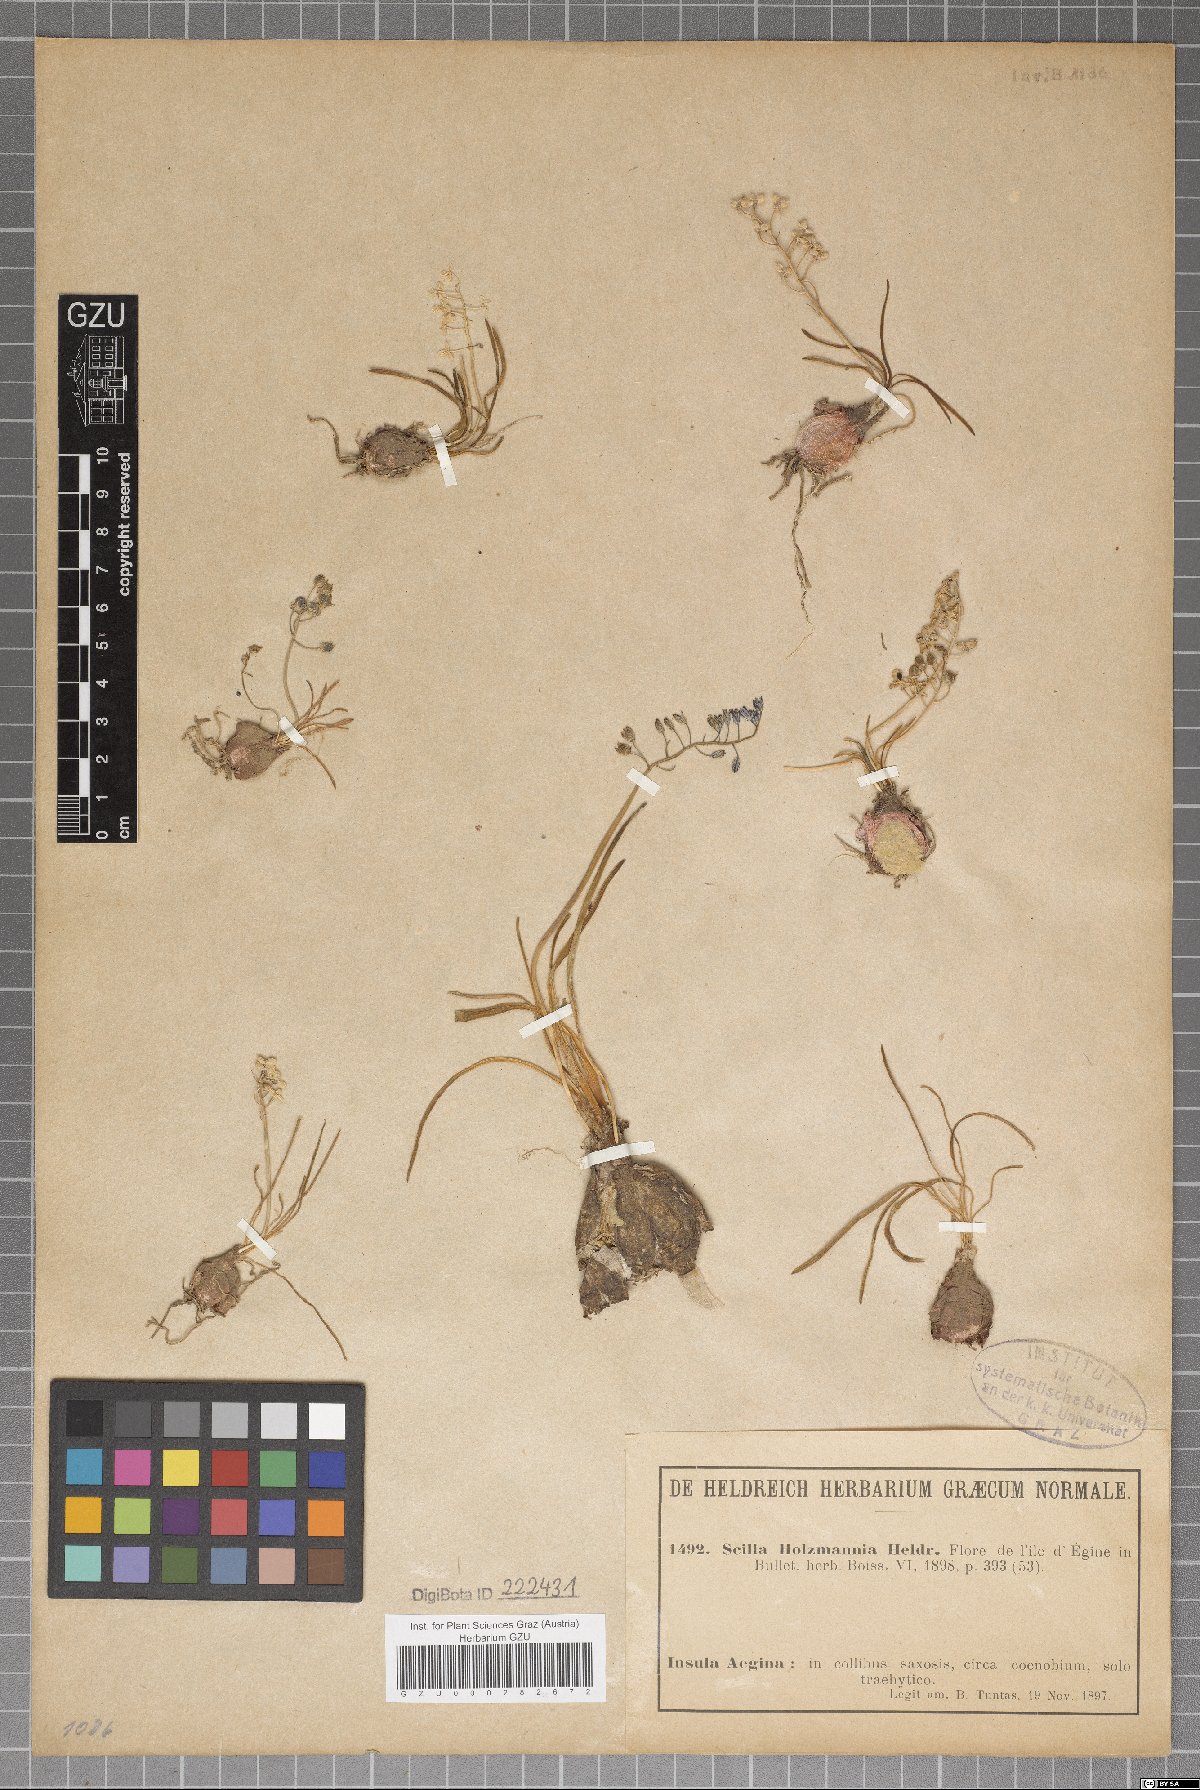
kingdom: Plantae
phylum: Tracheophyta
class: Liliopsida
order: Asparagales
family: Asparagaceae
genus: Prospero
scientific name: Prospero autumnale
